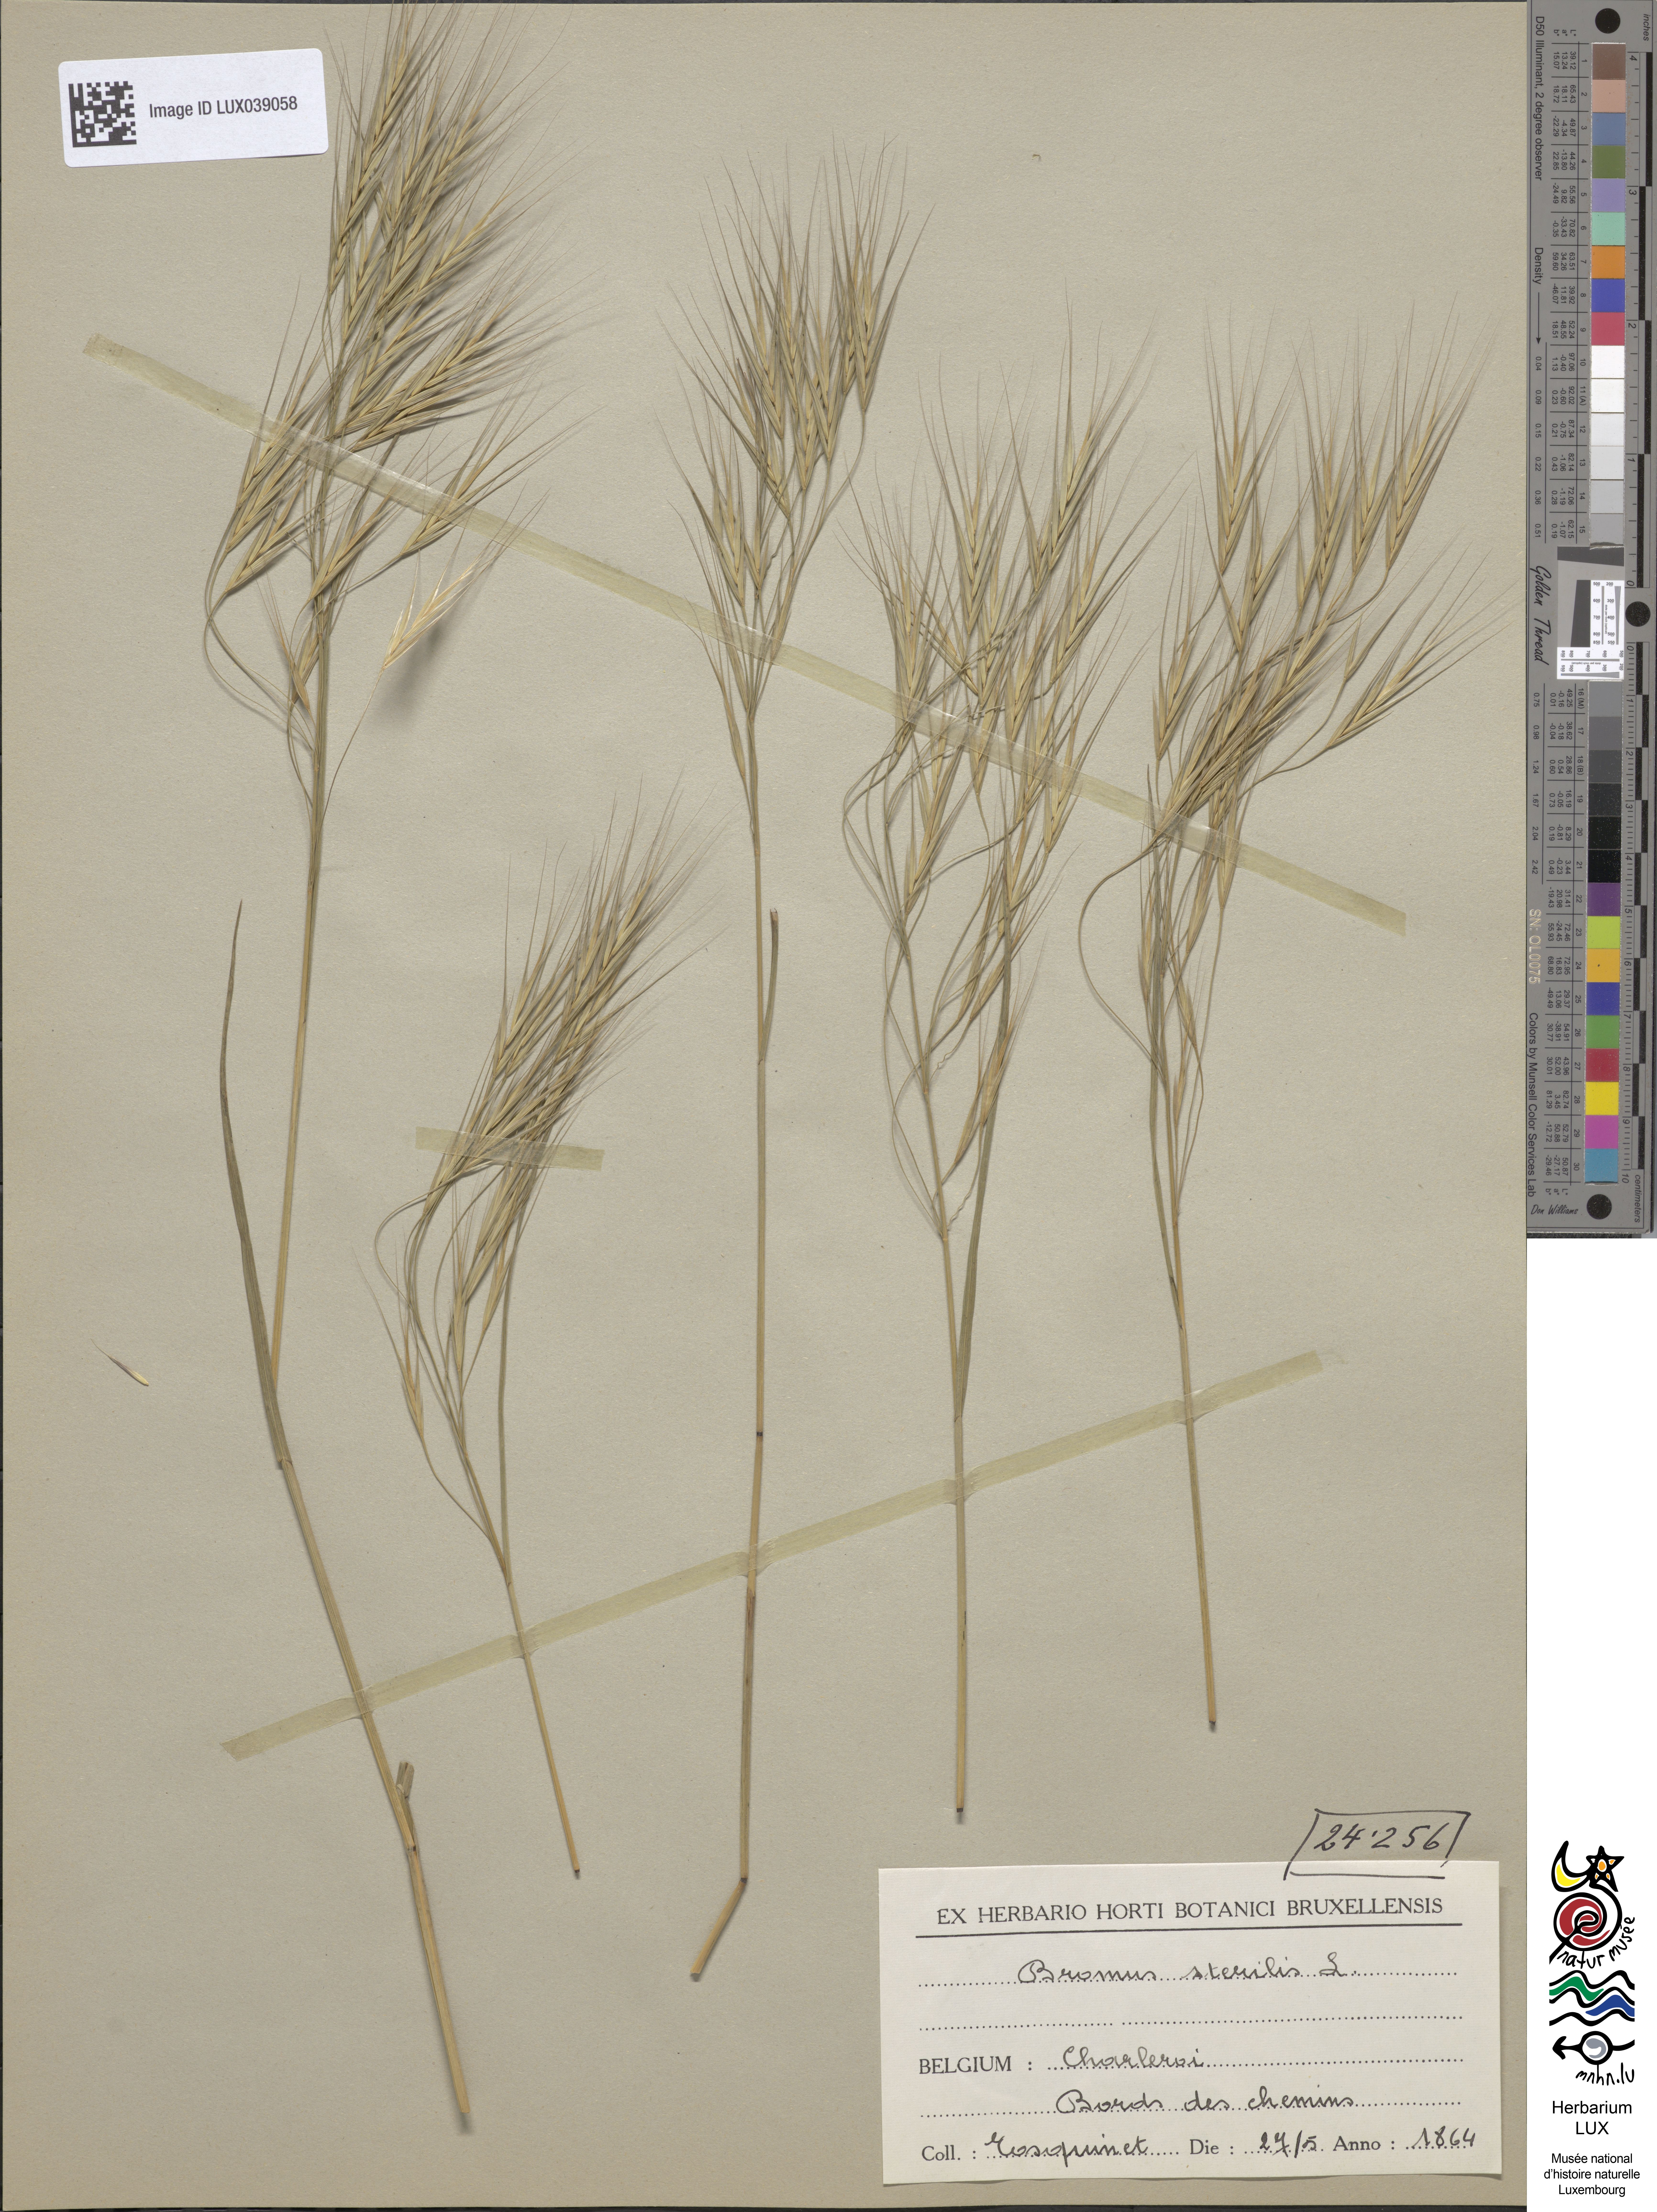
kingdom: Plantae
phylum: Tracheophyta
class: Liliopsida
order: Poales
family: Poaceae
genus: Bromus
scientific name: Bromus sterilis
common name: Poverty brome
